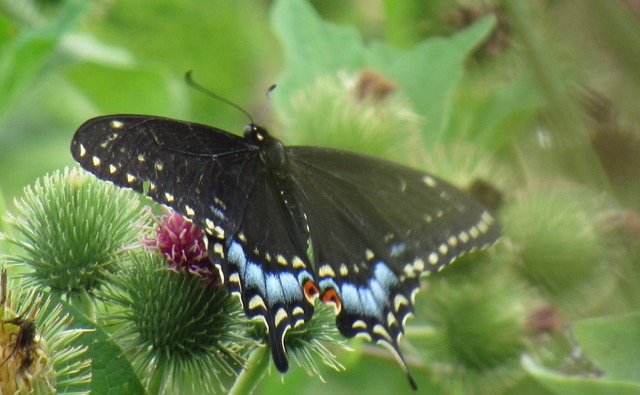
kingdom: Animalia
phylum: Arthropoda
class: Insecta
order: Lepidoptera
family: Papilionidae
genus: Papilio
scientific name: Papilio polyxenes
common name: Black Swallowtail
